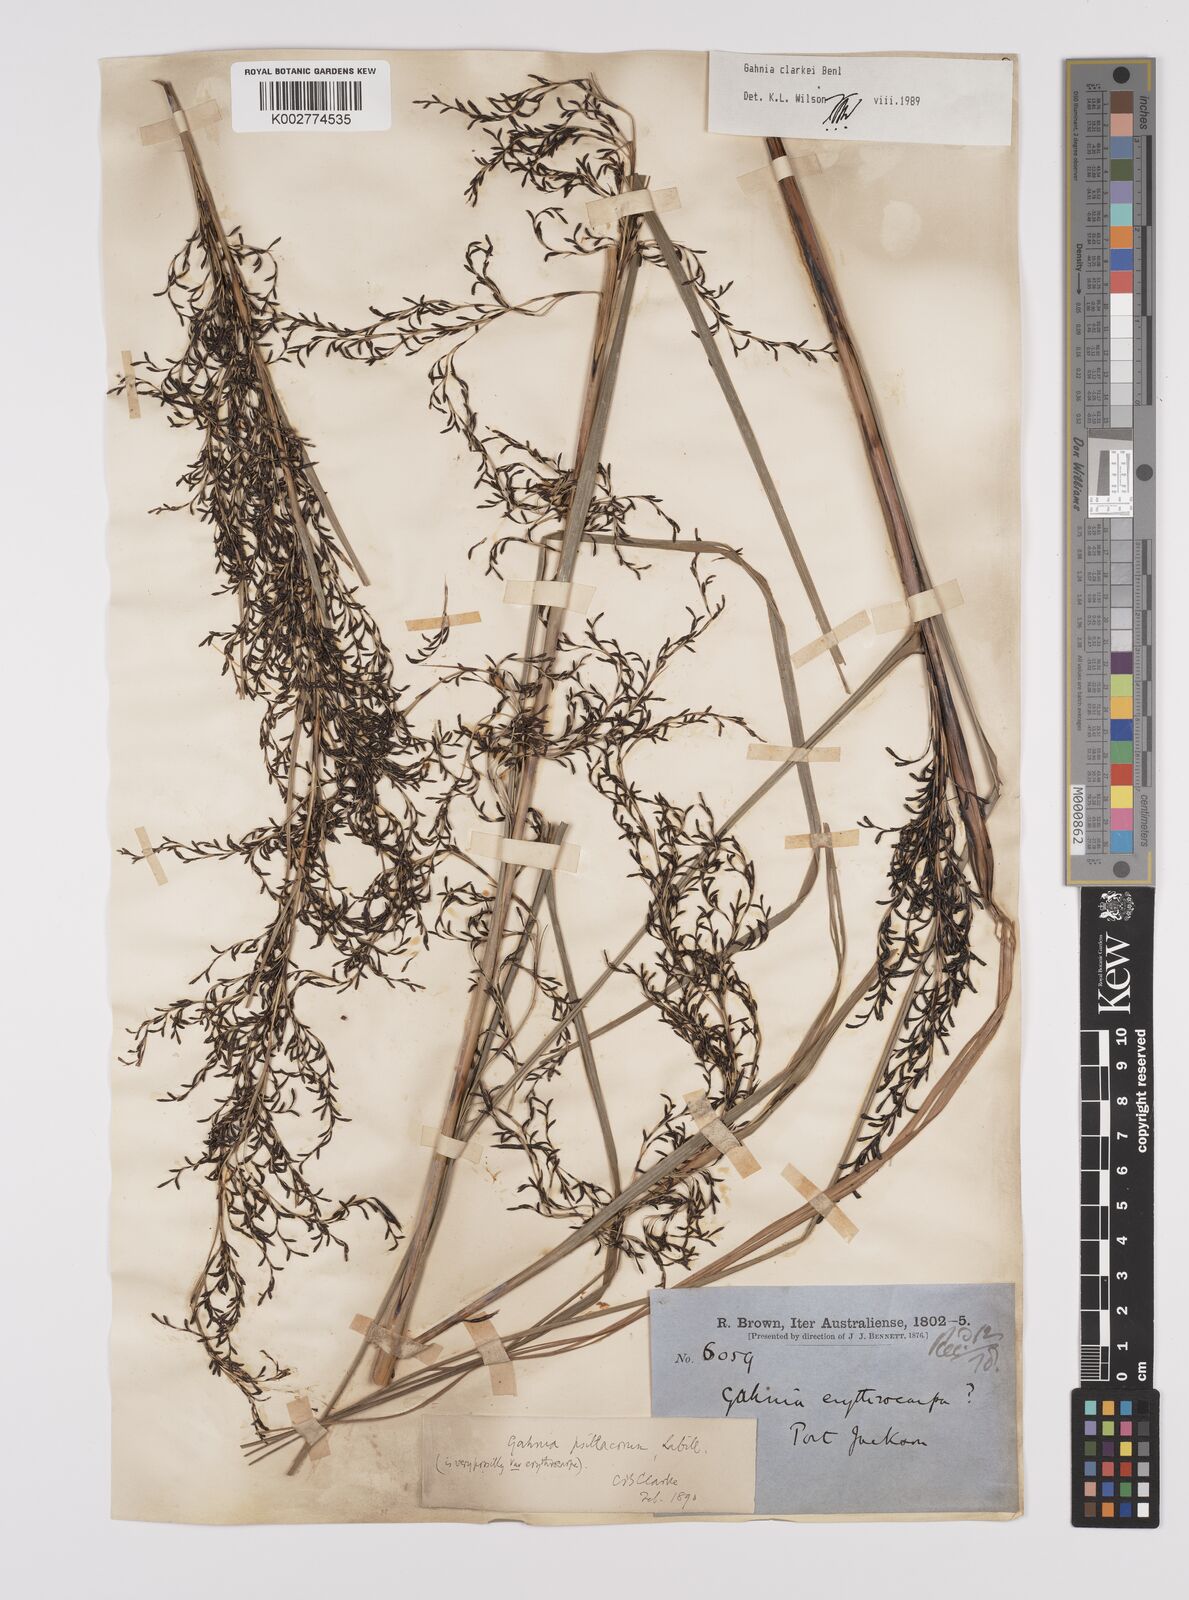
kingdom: Plantae
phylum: Tracheophyta
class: Liliopsida
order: Poales
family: Cyperaceae
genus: Gahnia
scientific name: Gahnia clarkei
